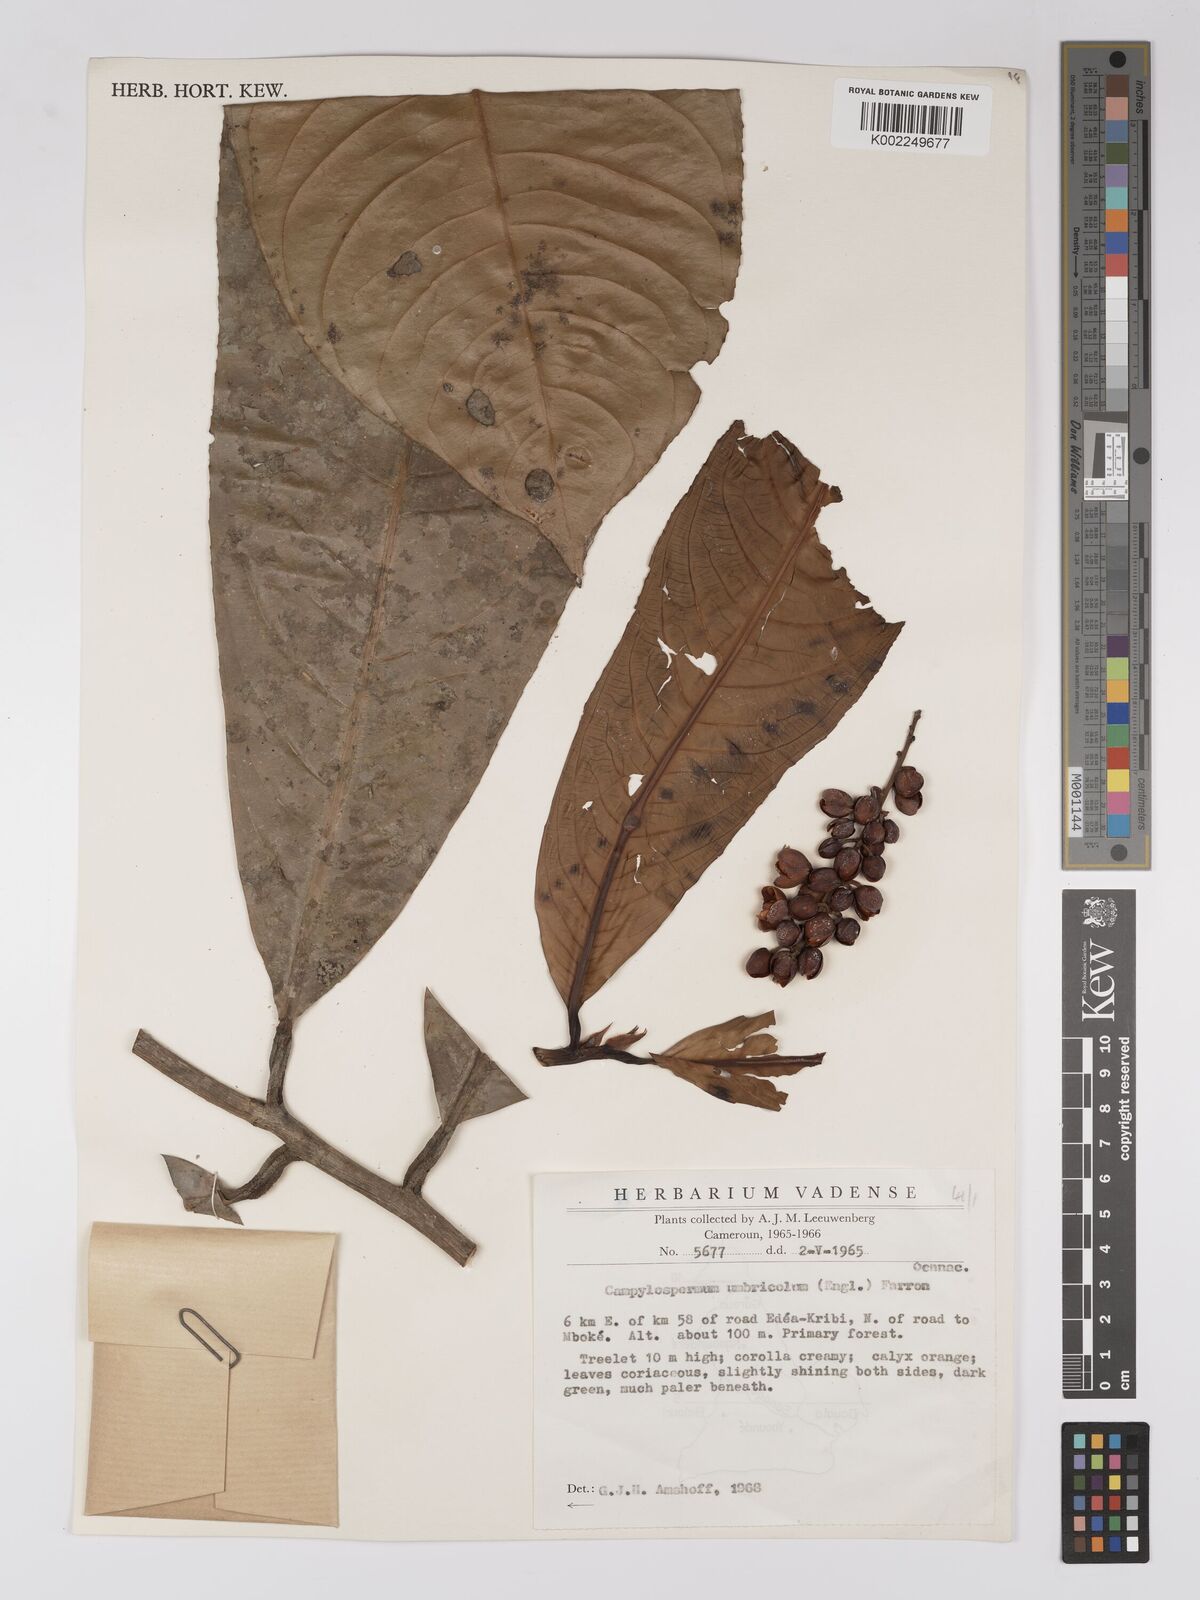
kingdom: Plantae
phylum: Tracheophyta
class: Magnoliopsida
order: Malpighiales
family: Ochnaceae
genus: Campylospermum
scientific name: Campylospermum umbricola
